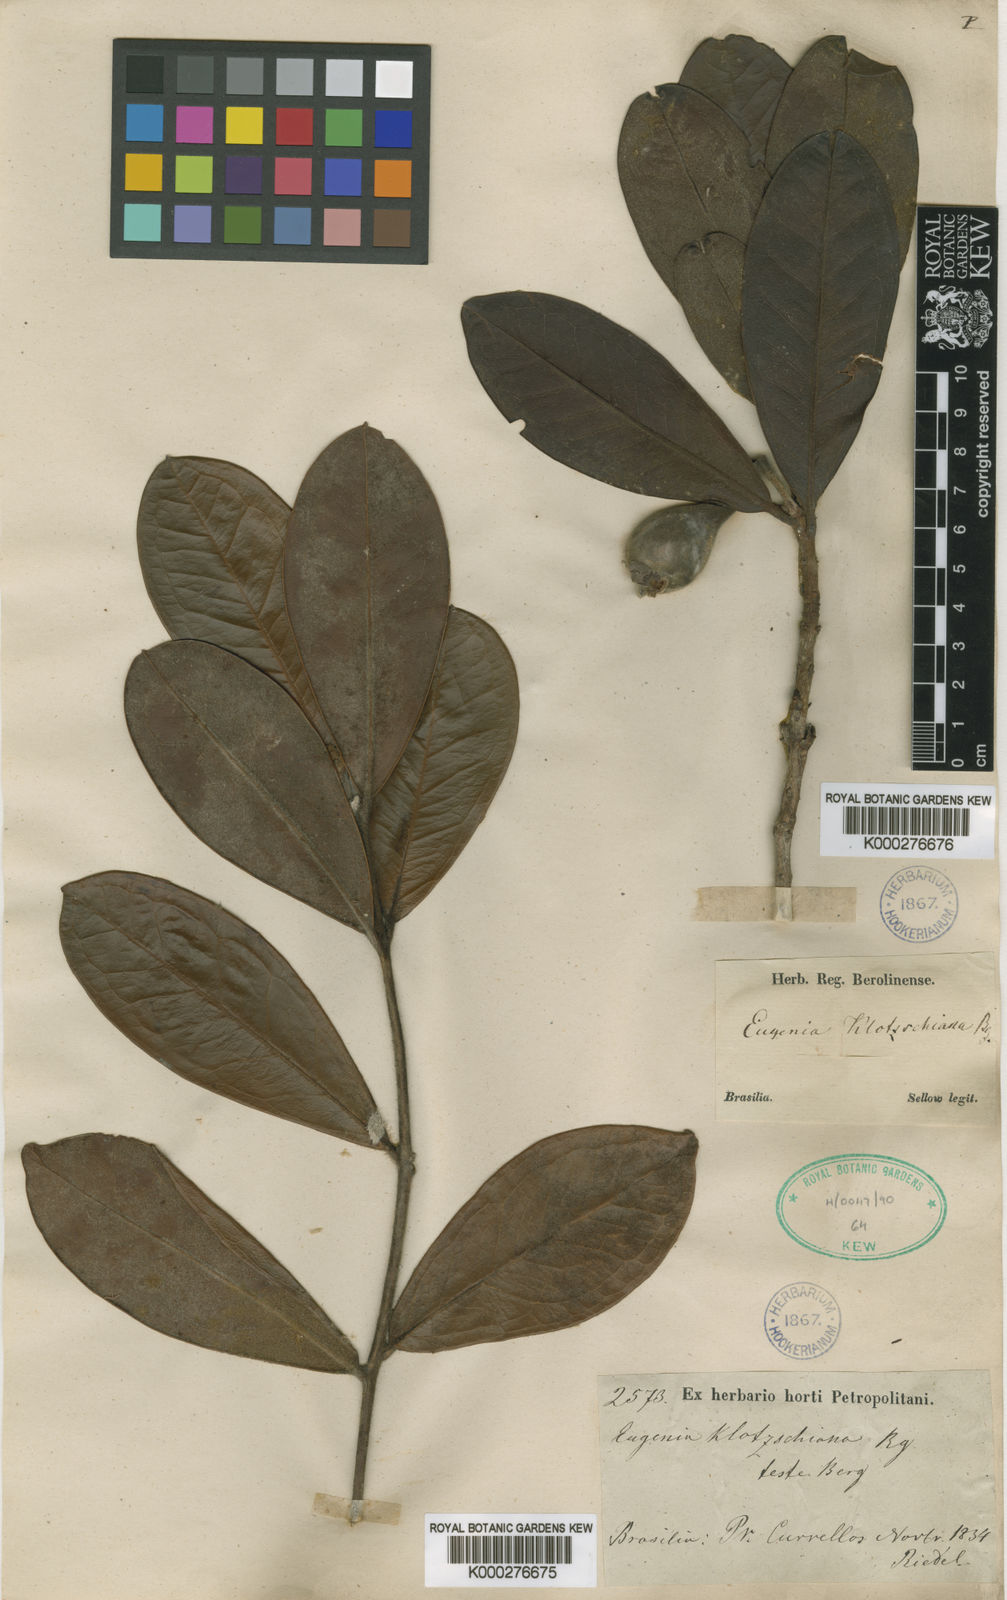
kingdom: Plantae
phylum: Tracheophyta
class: Magnoliopsida
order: Myrtales
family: Myrtaceae
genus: Eugenia
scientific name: Eugenia klotzschiana
